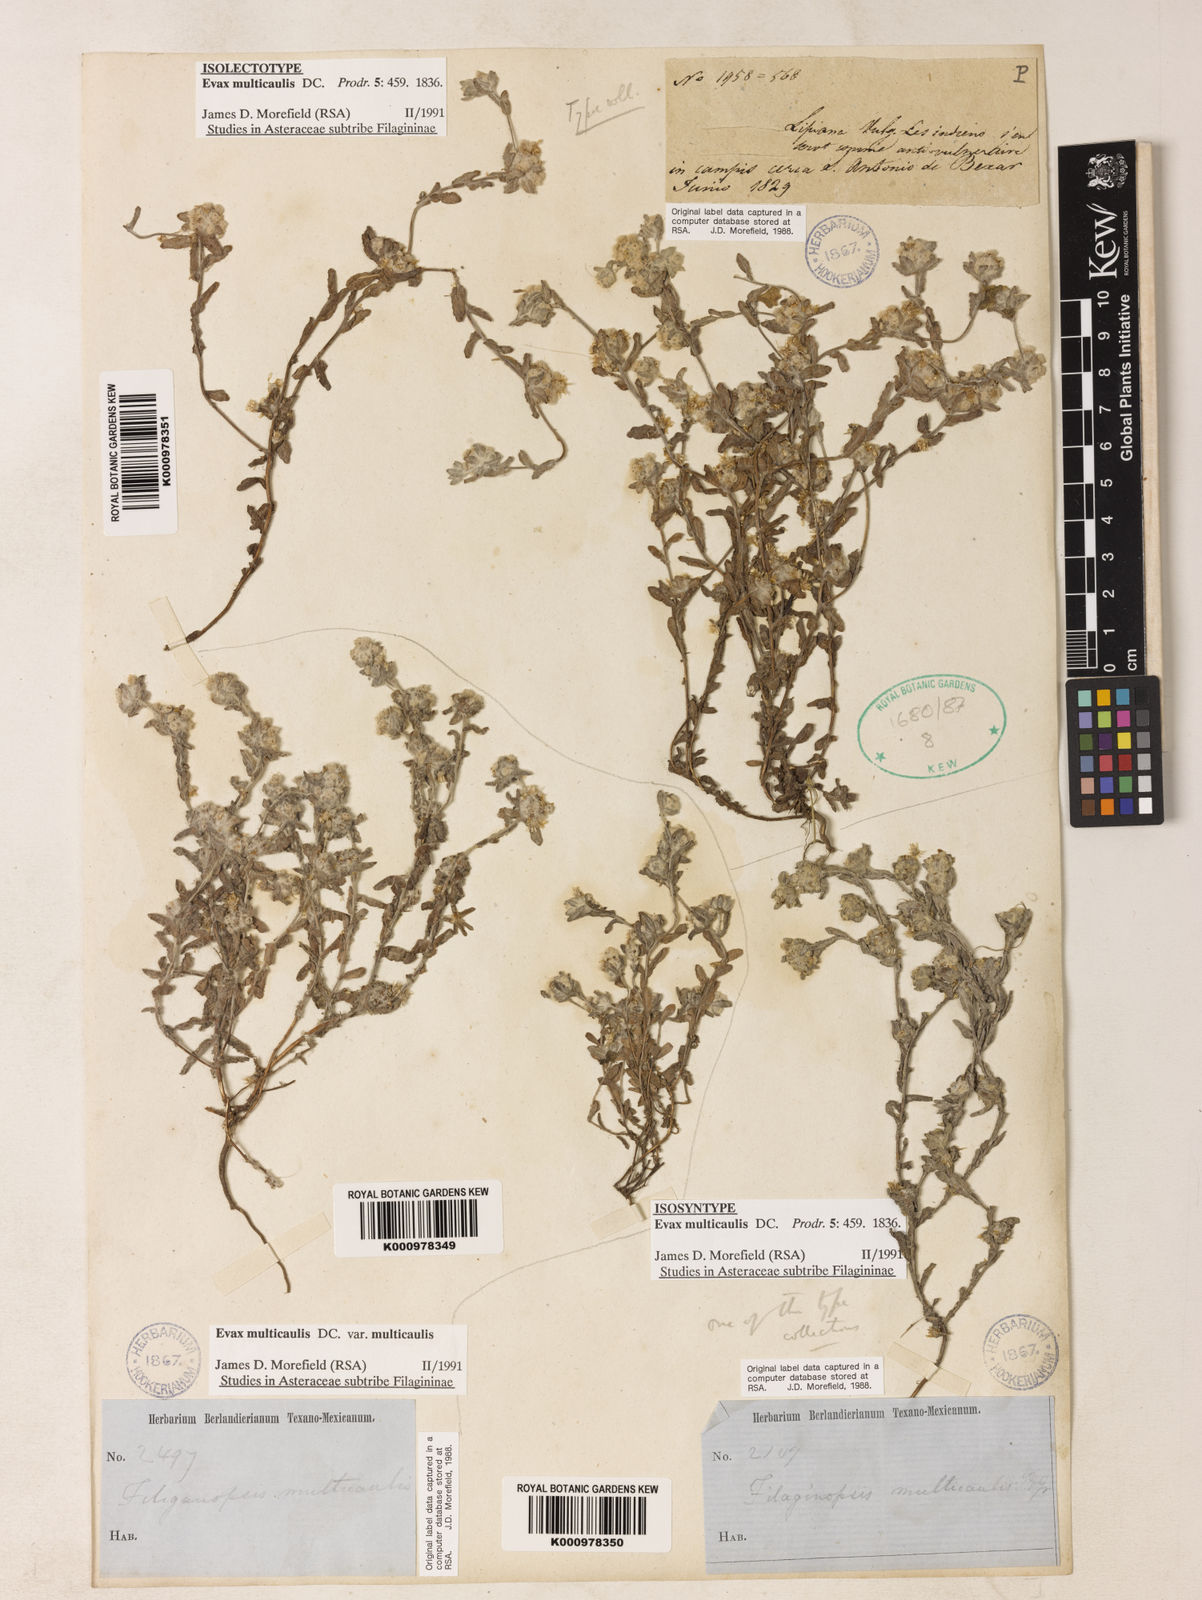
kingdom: Plantae
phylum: Tracheophyta
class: Magnoliopsida
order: Asterales
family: Asteraceae
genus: Diaperia
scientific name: Diaperia verna
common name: Many-stem rabbit-tobacco
